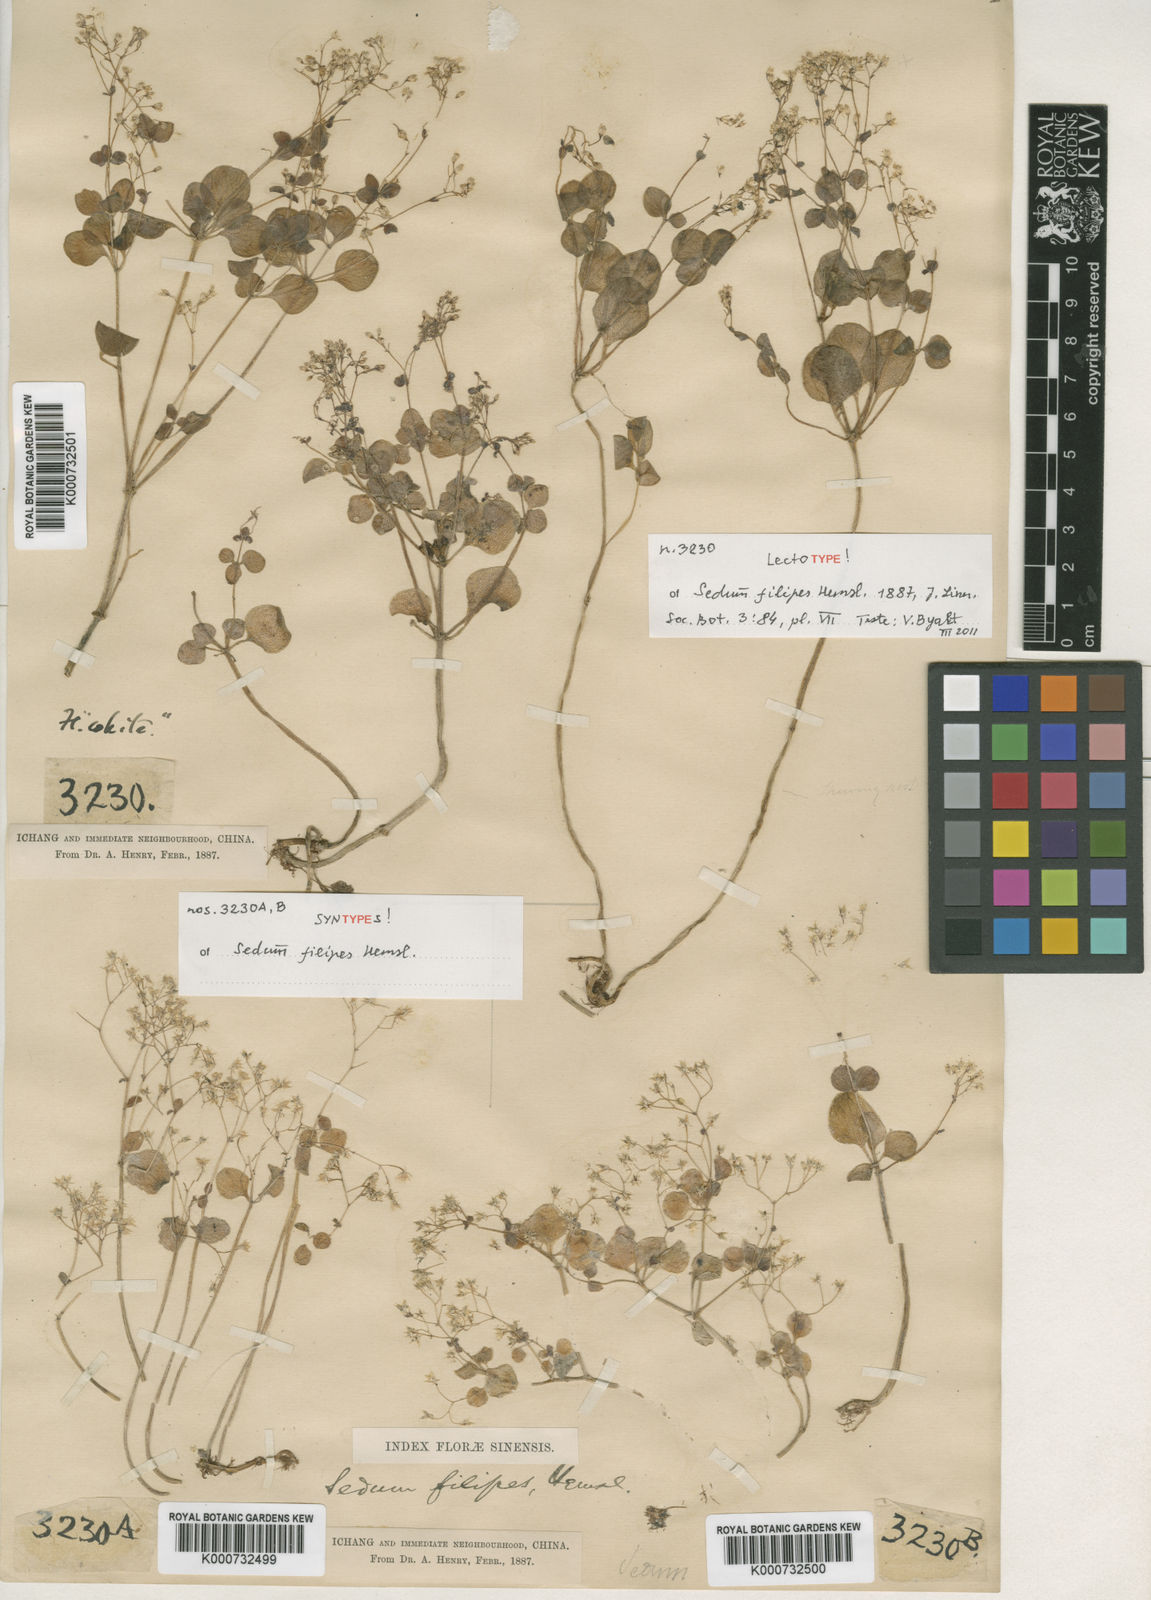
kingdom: Plantae
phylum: Tracheophyta
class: Magnoliopsida
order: Saxifragales
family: Crassulaceae
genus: Sedum
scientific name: Sedum filipes
